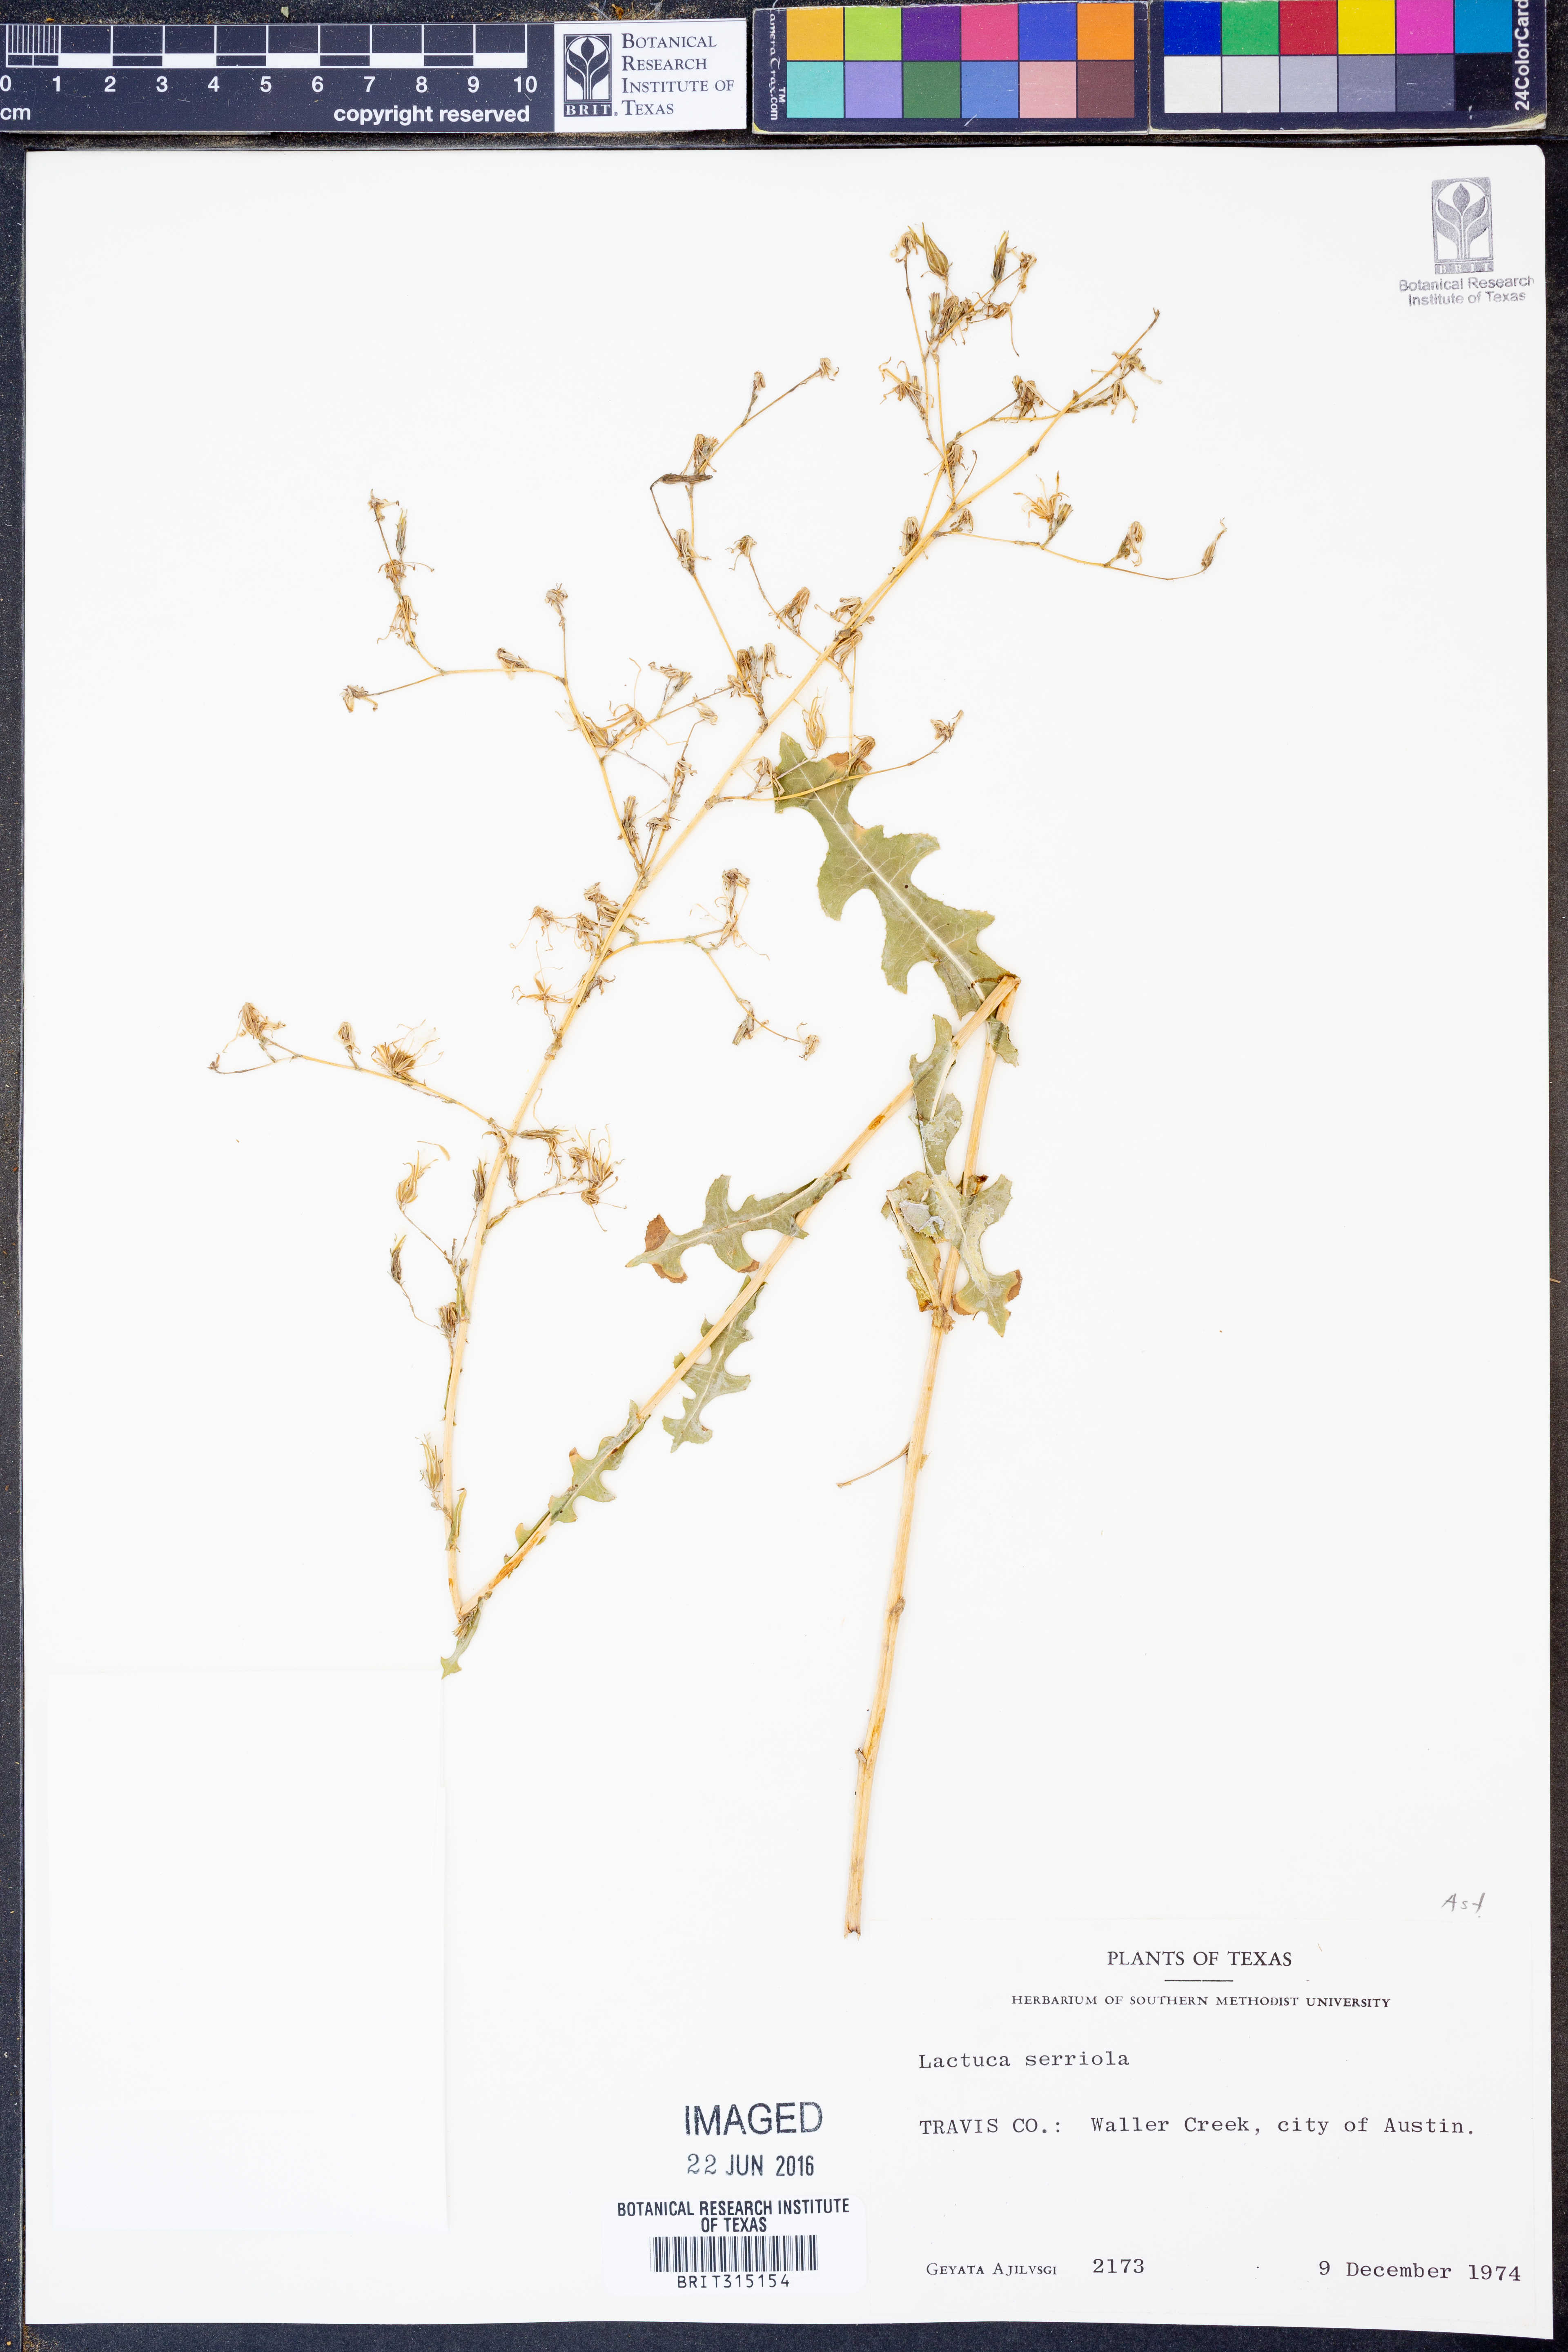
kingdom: Plantae
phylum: Tracheophyta
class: Magnoliopsida
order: Asterales
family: Asteraceae
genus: Lactuca
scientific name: Lactuca serriola
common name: Prickly lettuce
